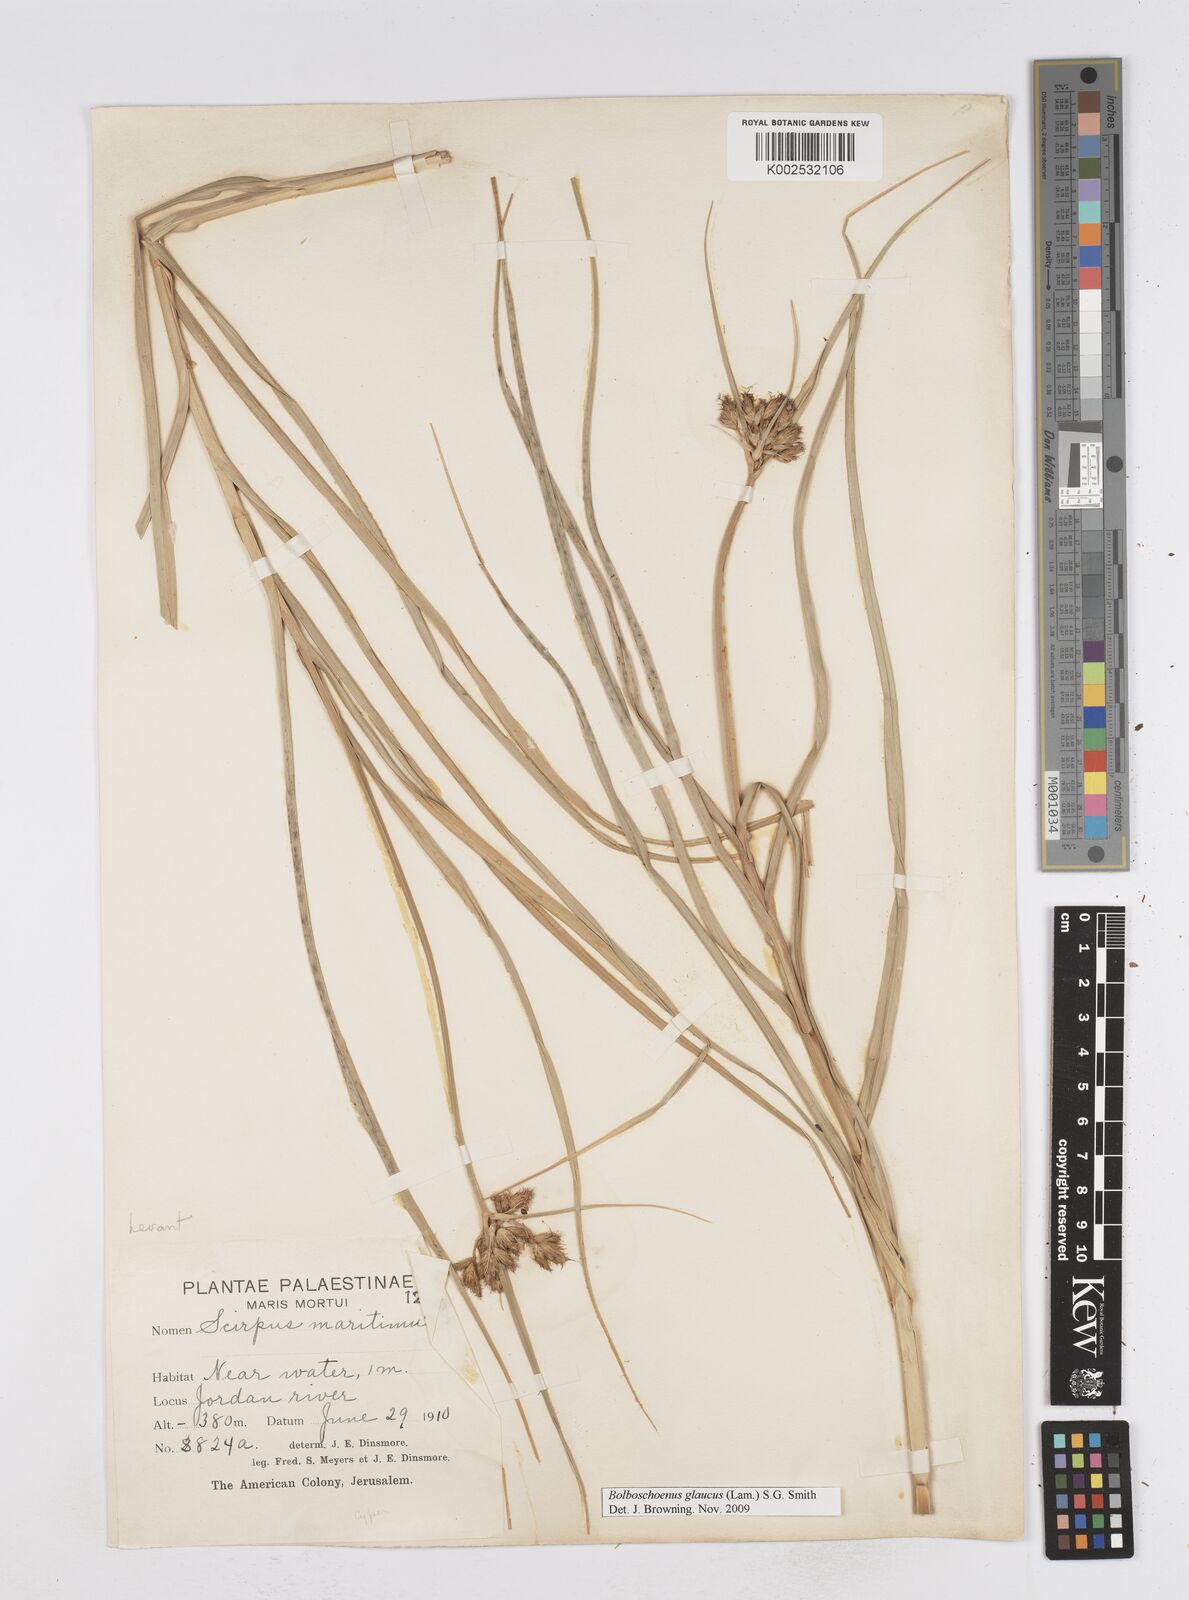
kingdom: Plantae
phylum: Tracheophyta
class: Liliopsida
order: Poales
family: Cyperaceae
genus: Bolboschoenus
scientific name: Bolboschoenus maritimus
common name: Sea club-rush
